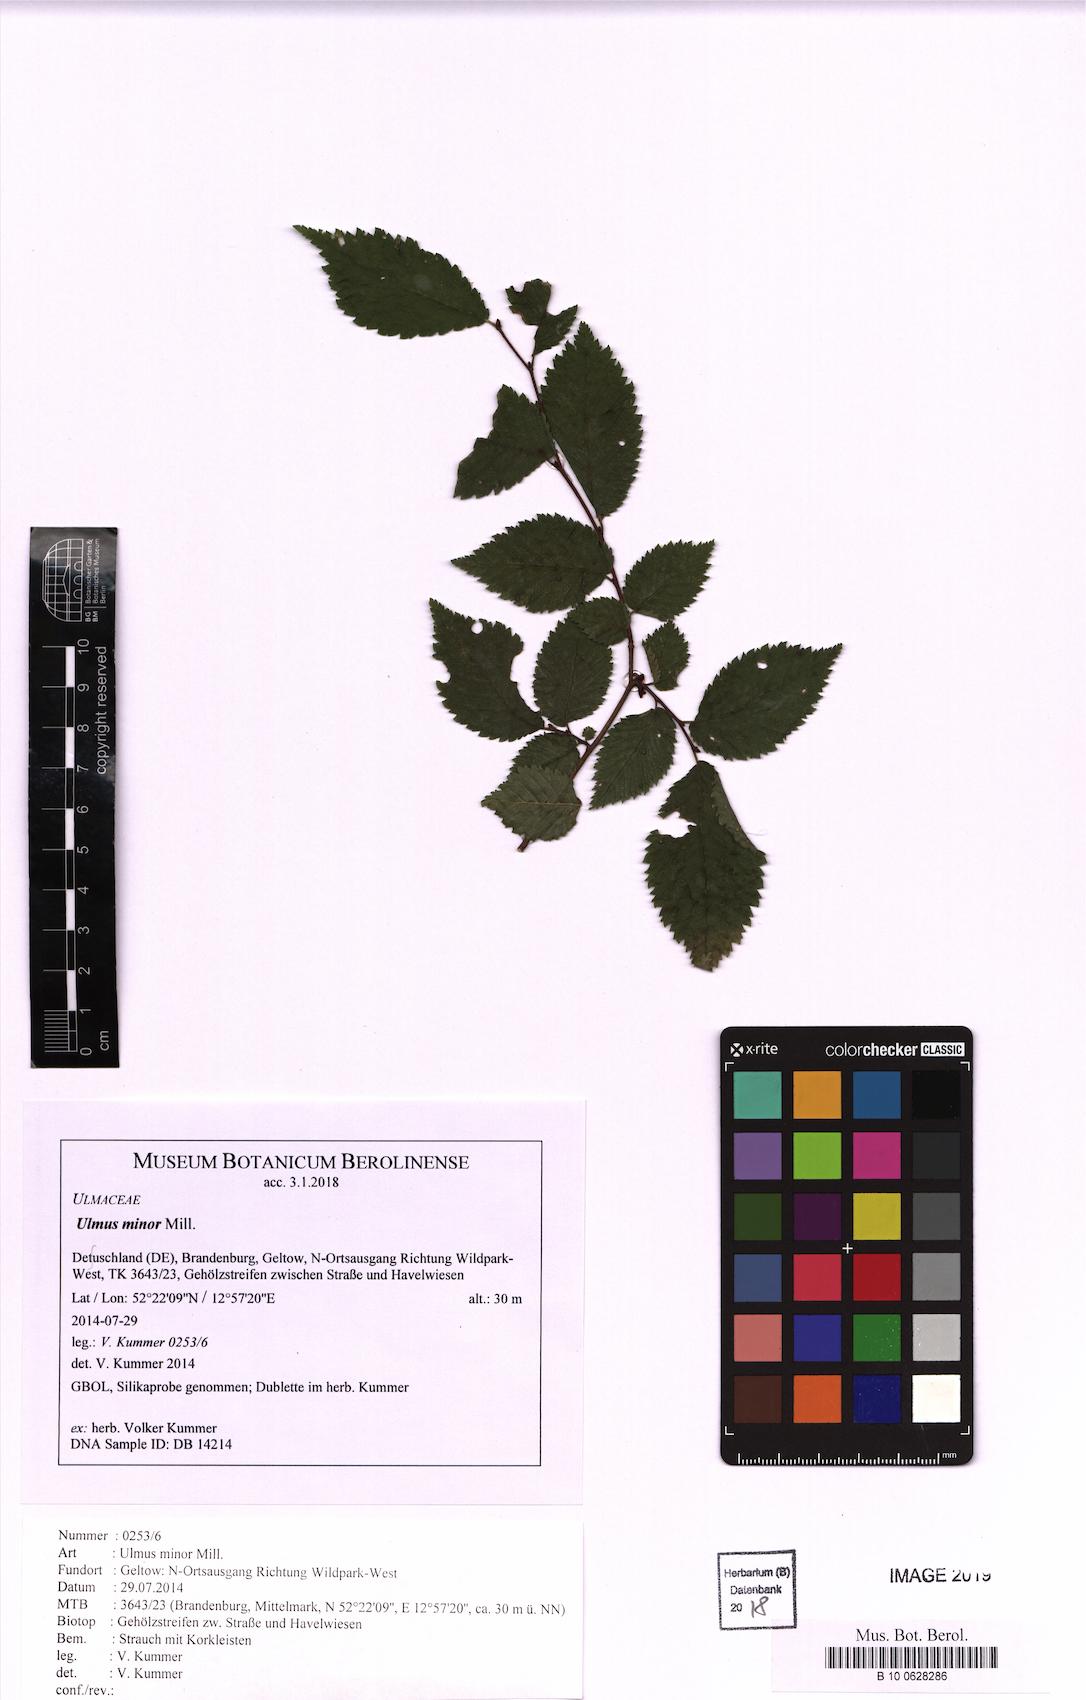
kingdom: Plantae
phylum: Tracheophyta
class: Magnoliopsida
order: Rosales
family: Ulmaceae
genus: Ulmus
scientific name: Ulmus minor
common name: Small-leaved elm
